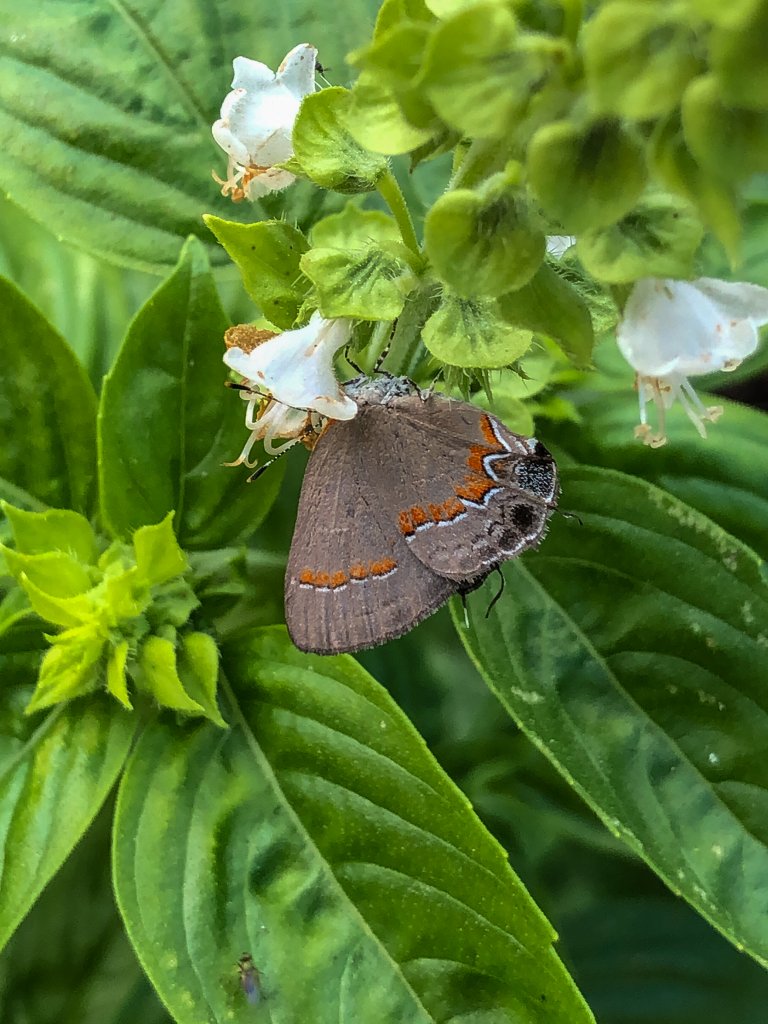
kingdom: Animalia
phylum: Arthropoda
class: Insecta
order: Lepidoptera
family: Lycaenidae
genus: Calycopis
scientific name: Calycopis cecrops
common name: Red-banded Hairstreak
